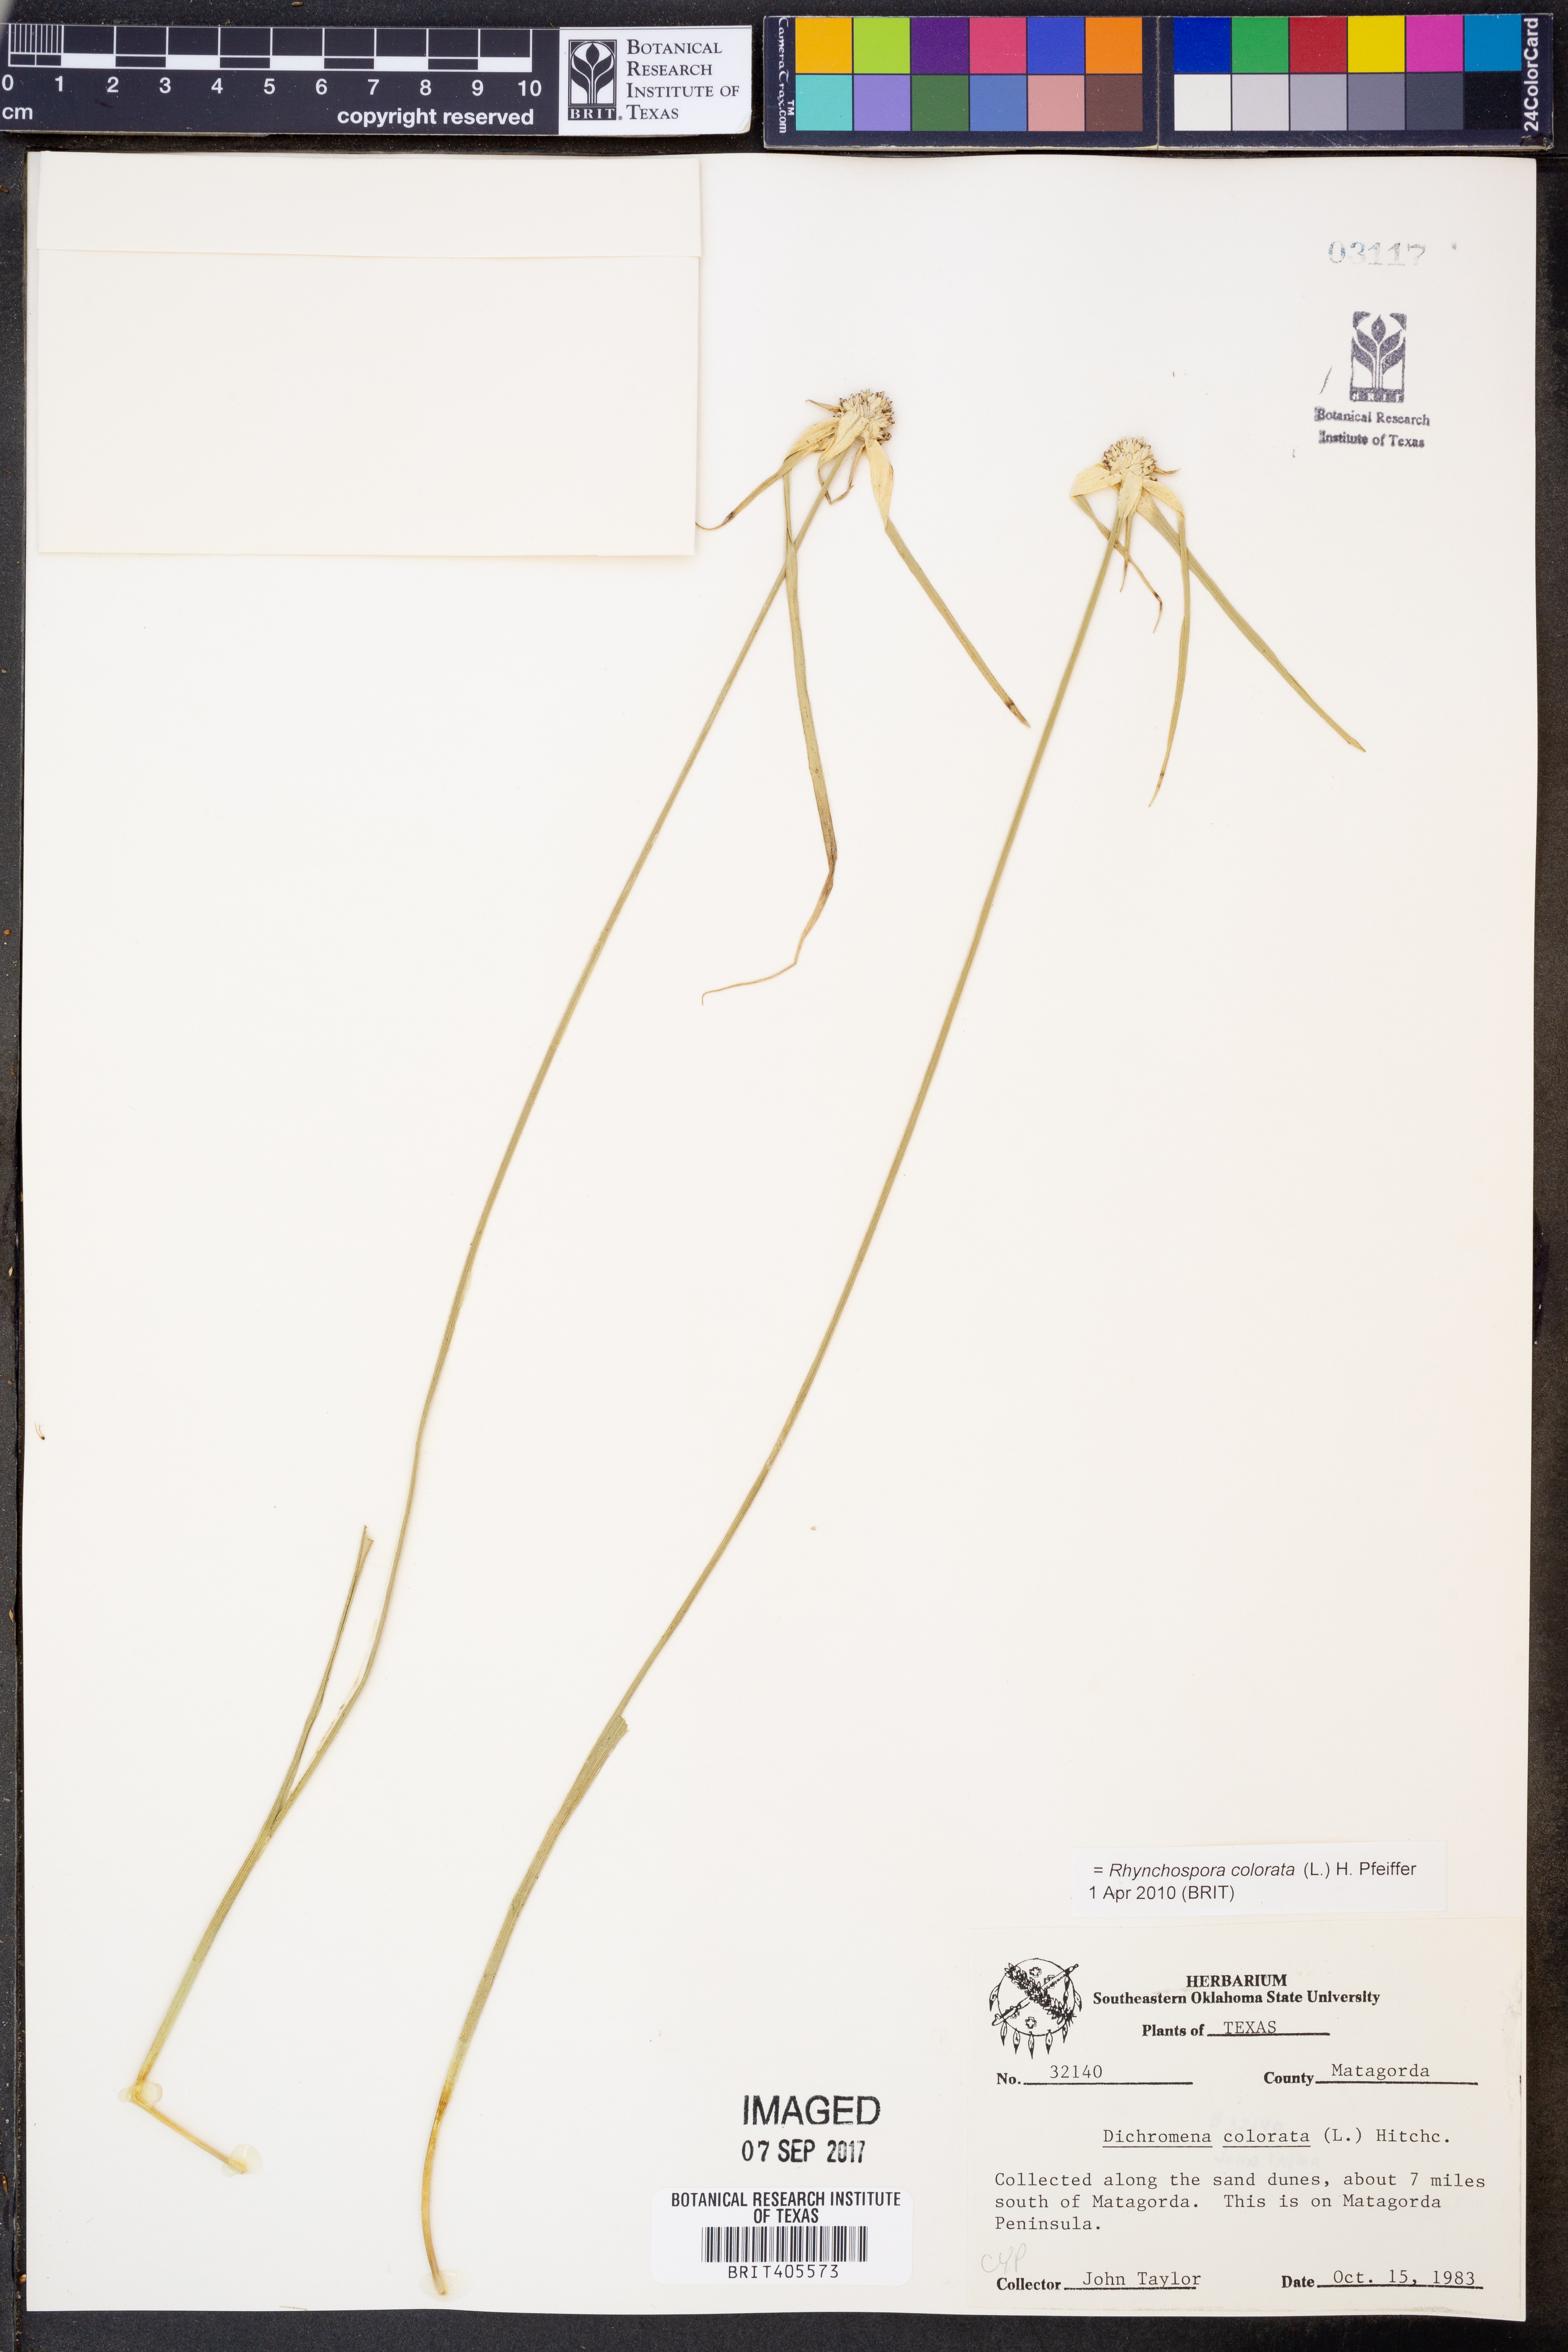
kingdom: Plantae
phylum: Tracheophyta
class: Liliopsida
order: Poales
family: Cyperaceae
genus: Rhynchospora
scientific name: Rhynchospora colorata
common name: Star sedge
